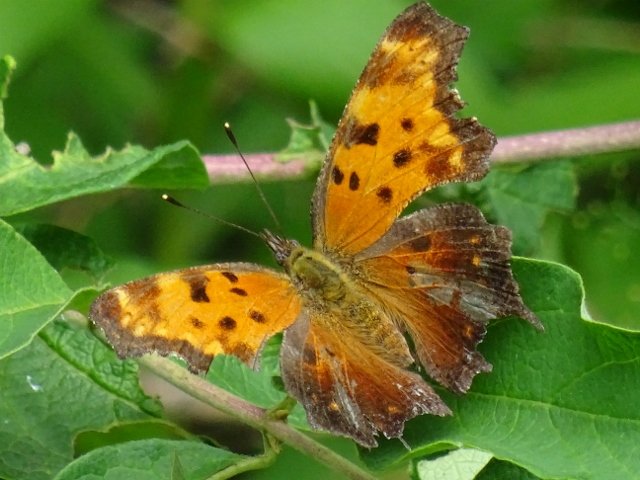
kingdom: Animalia
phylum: Arthropoda
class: Insecta
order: Lepidoptera
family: Nymphalidae
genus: Polygonia
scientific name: Polygonia progne
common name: Gray Comma
